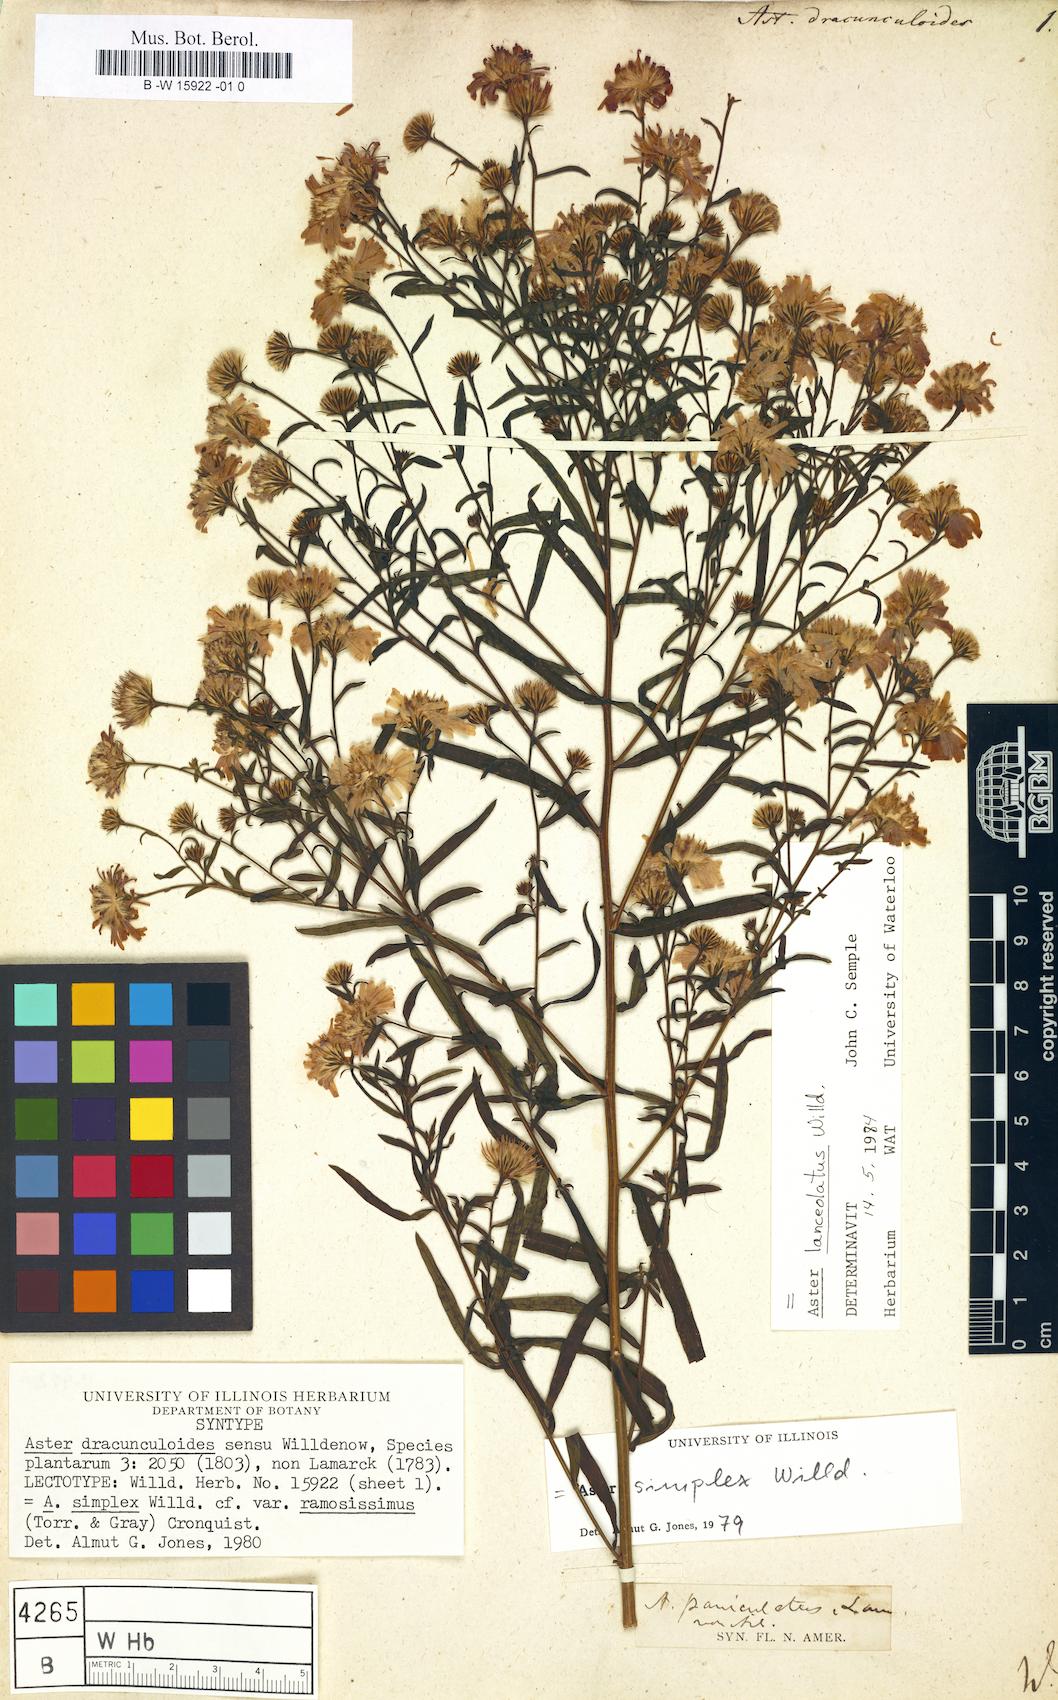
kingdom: Plantae
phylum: Tracheophyta
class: Magnoliopsida
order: Asterales
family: Asteraceae
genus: Aster
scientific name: Aster dracunculoides
